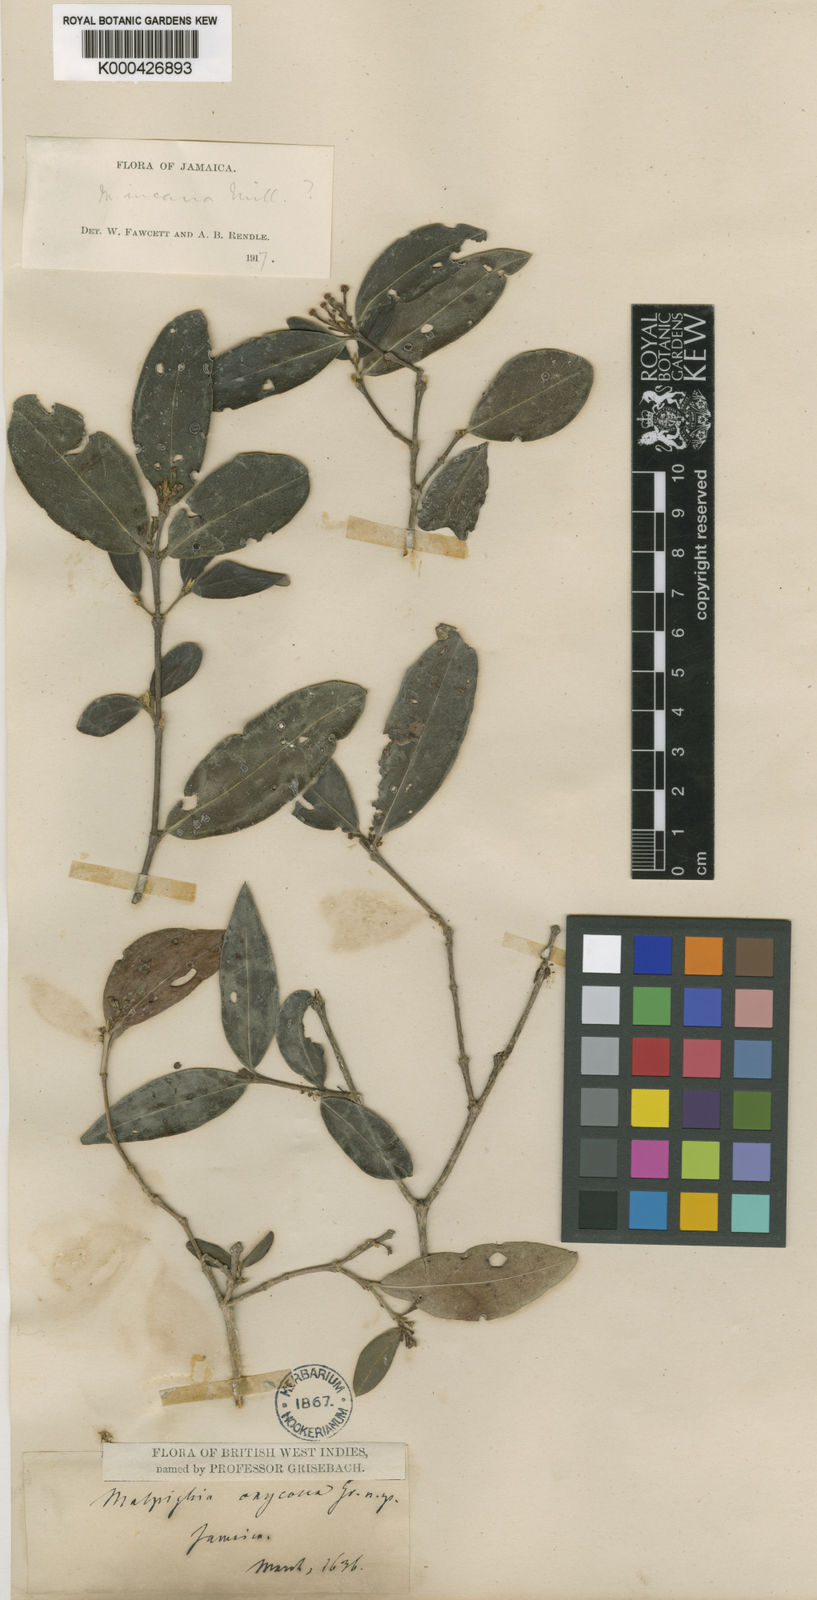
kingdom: Plantae
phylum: Tracheophyta
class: Magnoliopsida
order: Malpighiales
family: Malpighiaceae
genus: Malpighia
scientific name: Malpighia glabra
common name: Barbados cherry
